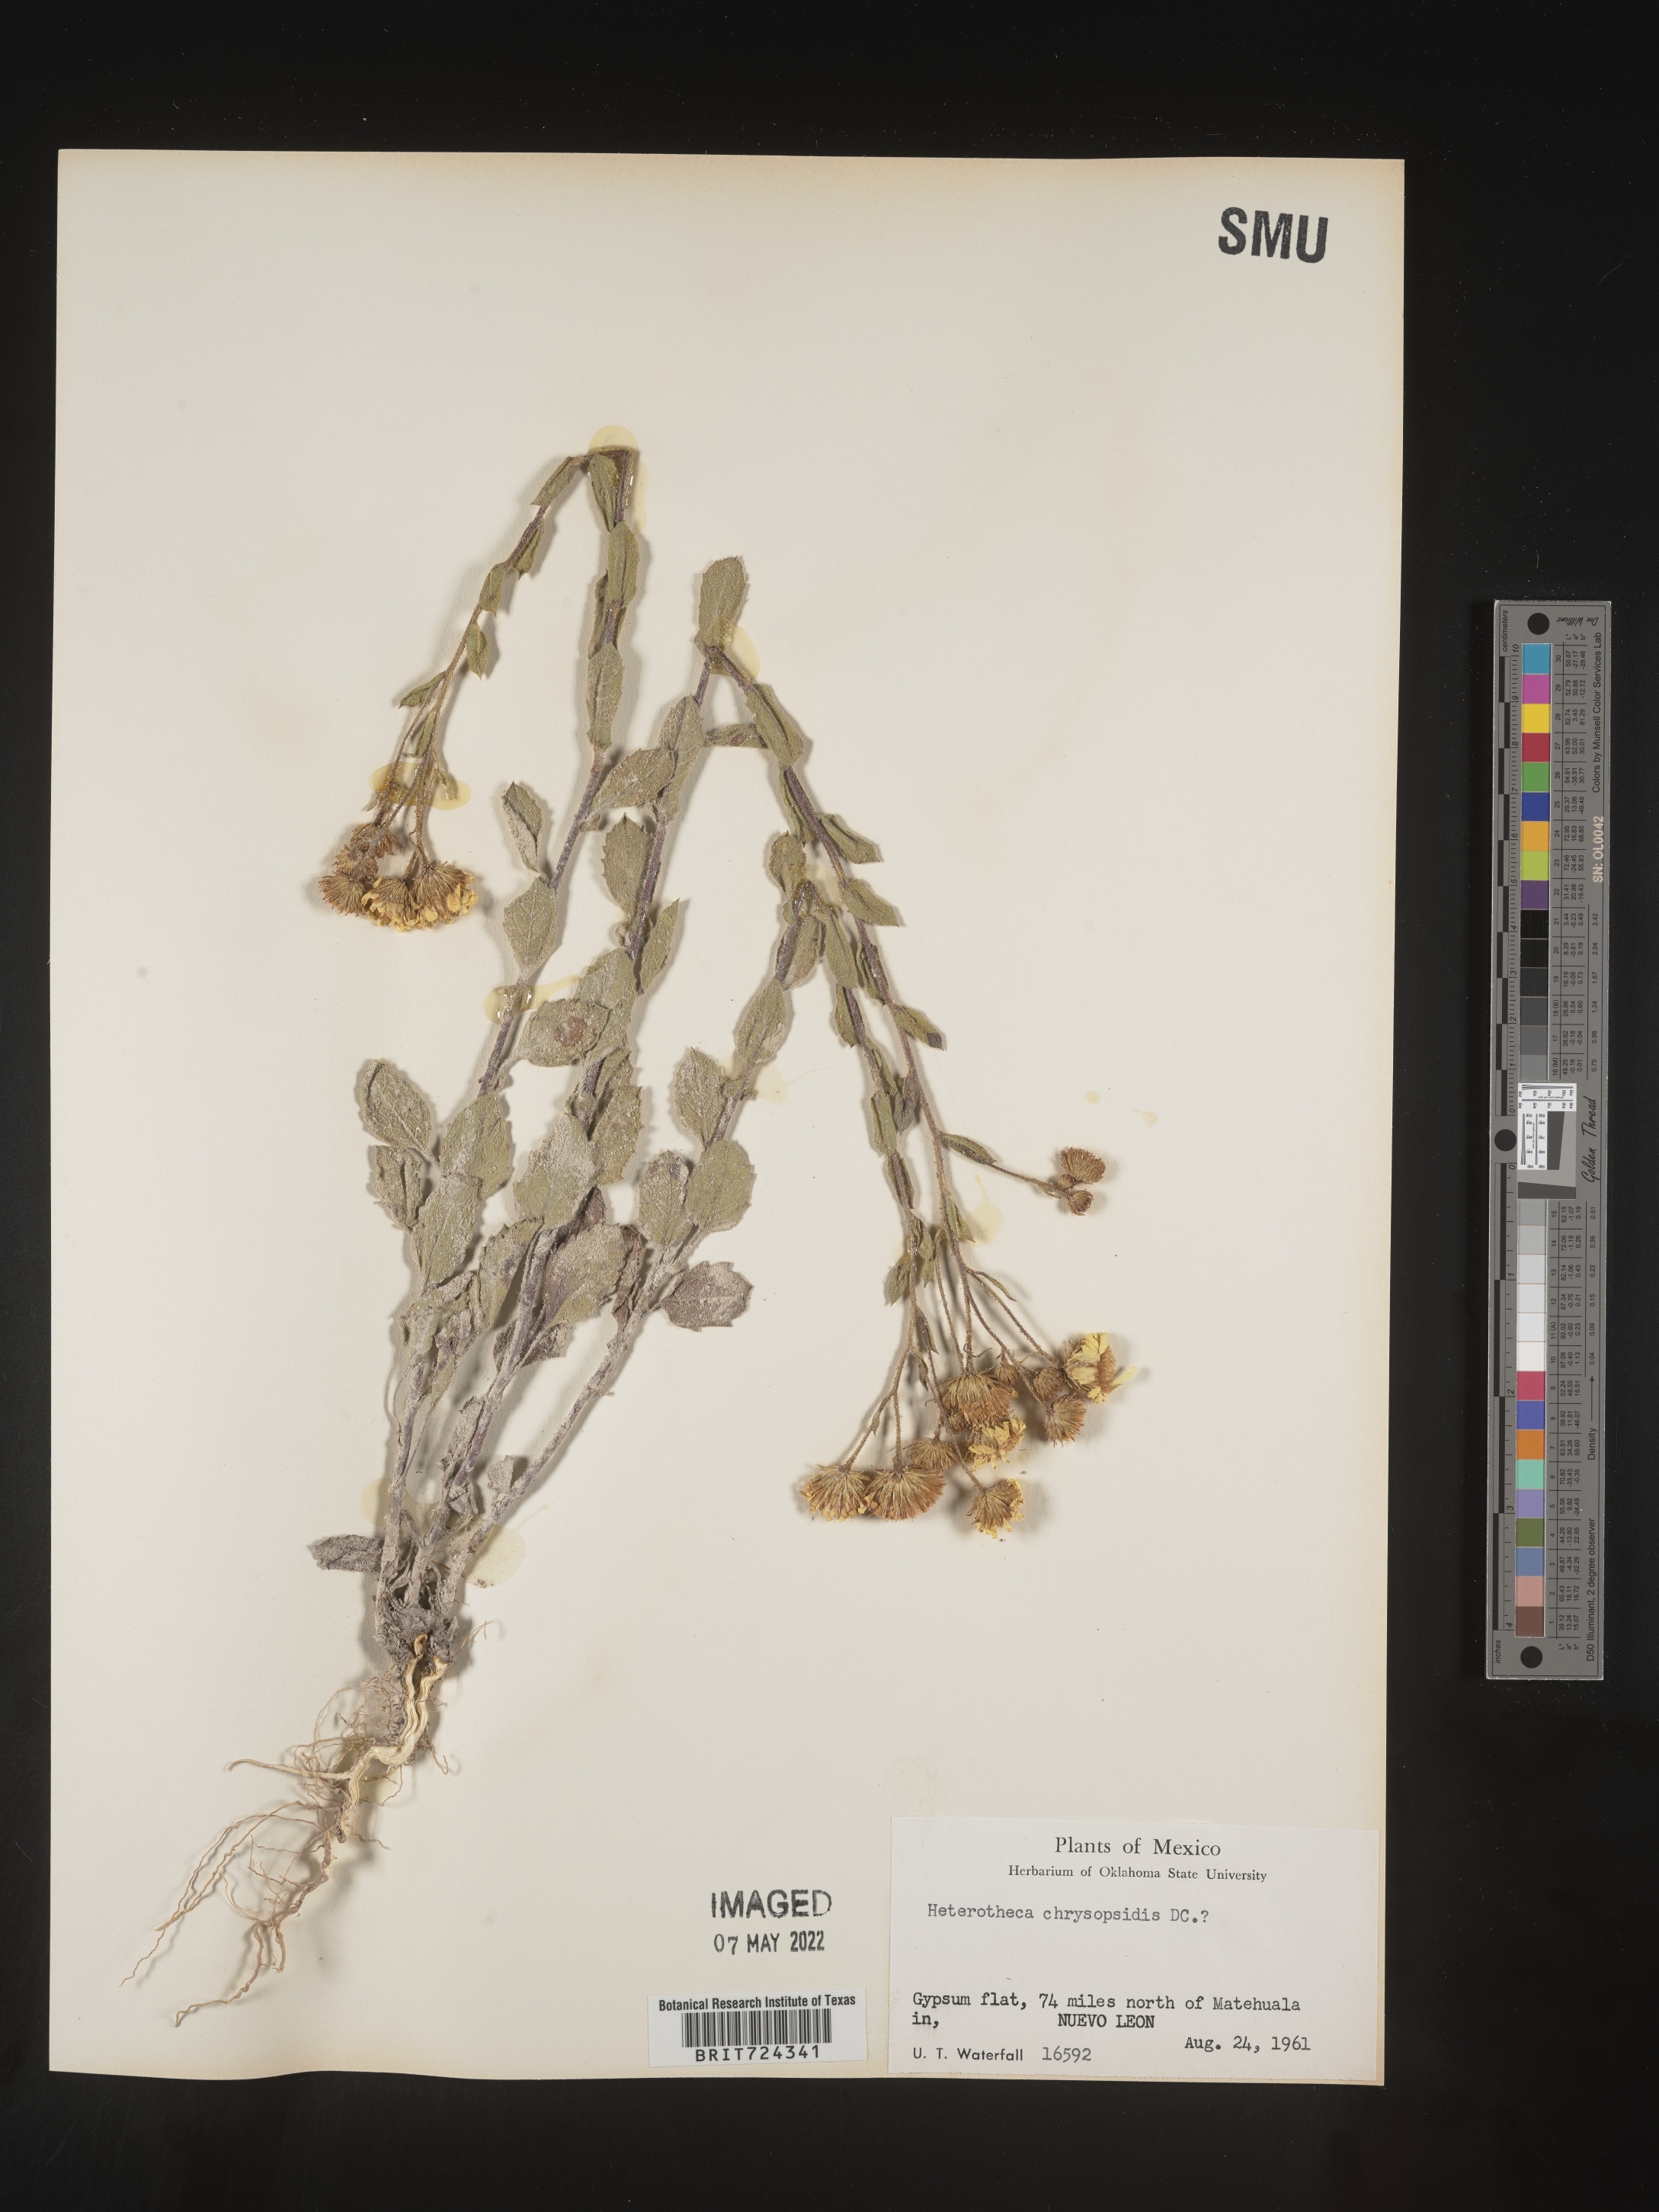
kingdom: Plantae
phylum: Tracheophyta
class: Magnoliopsida
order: Asterales
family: Asteraceae
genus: Heterotheca
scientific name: Heterotheca
